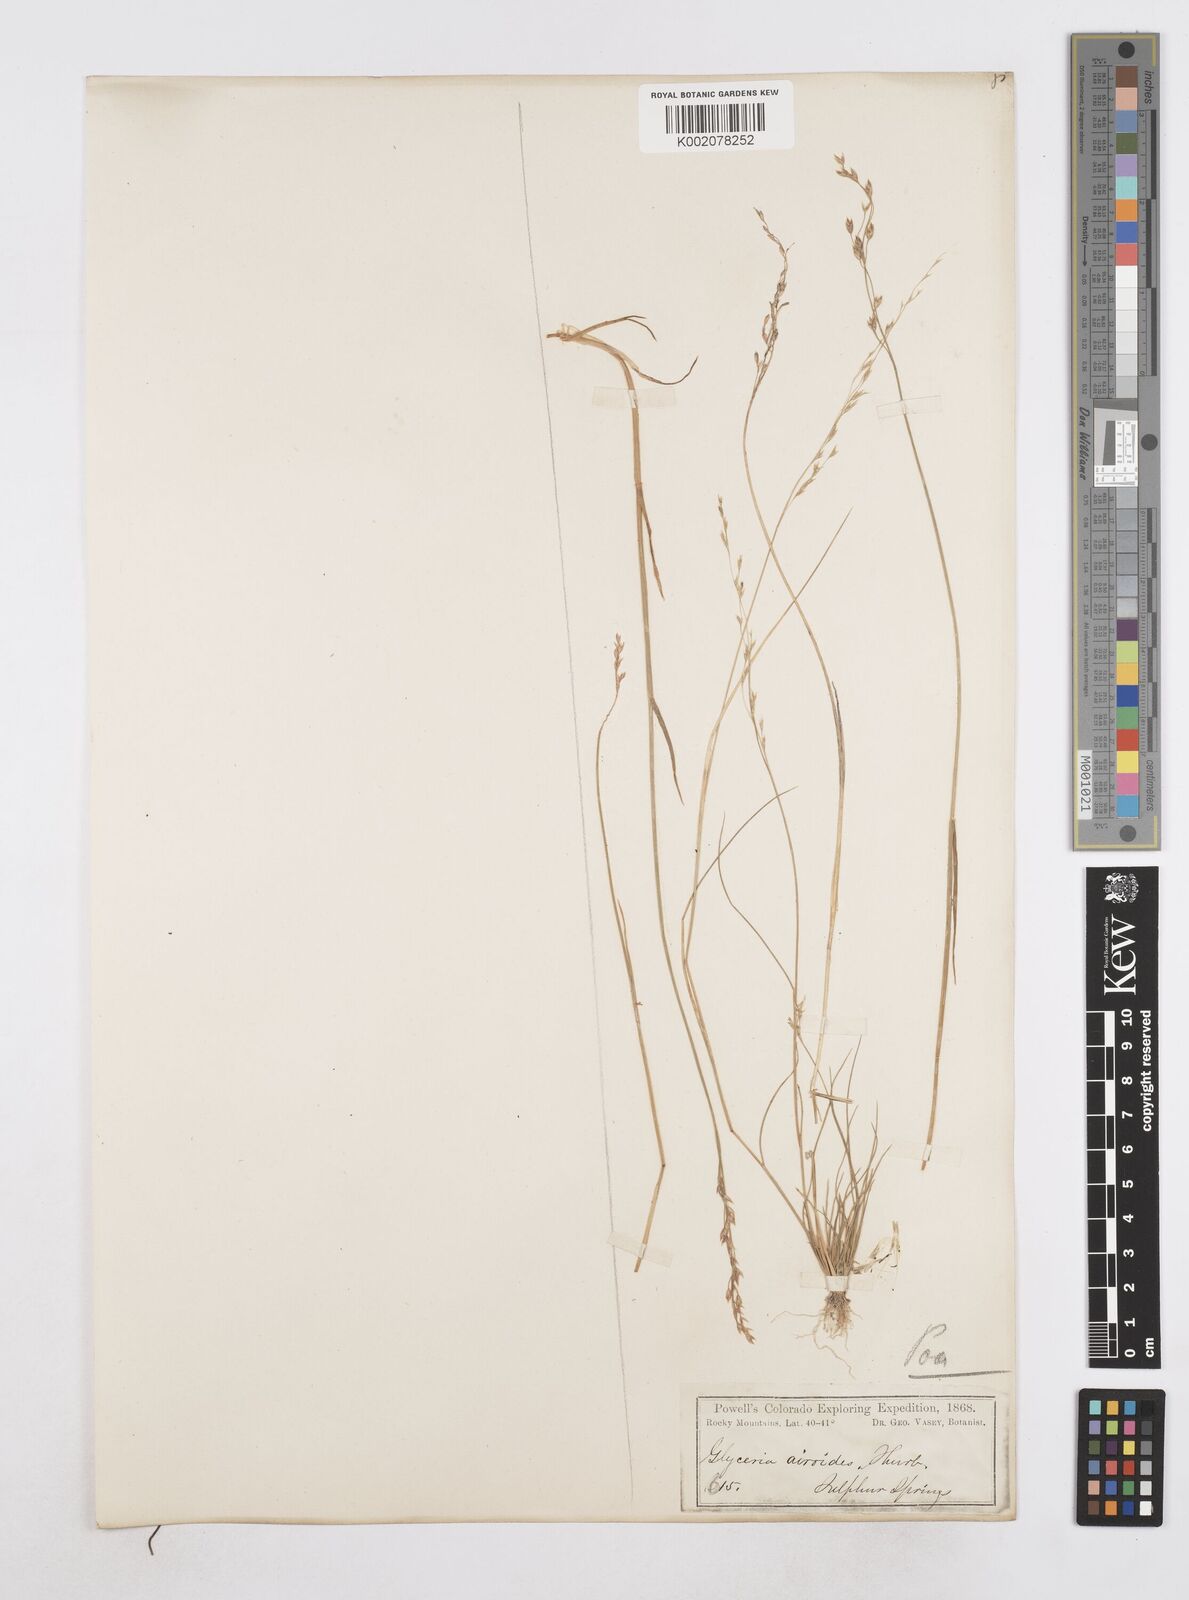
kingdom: Plantae
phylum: Tracheophyta
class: Liliopsida
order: Poales
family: Poaceae
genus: Poa
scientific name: Poa
